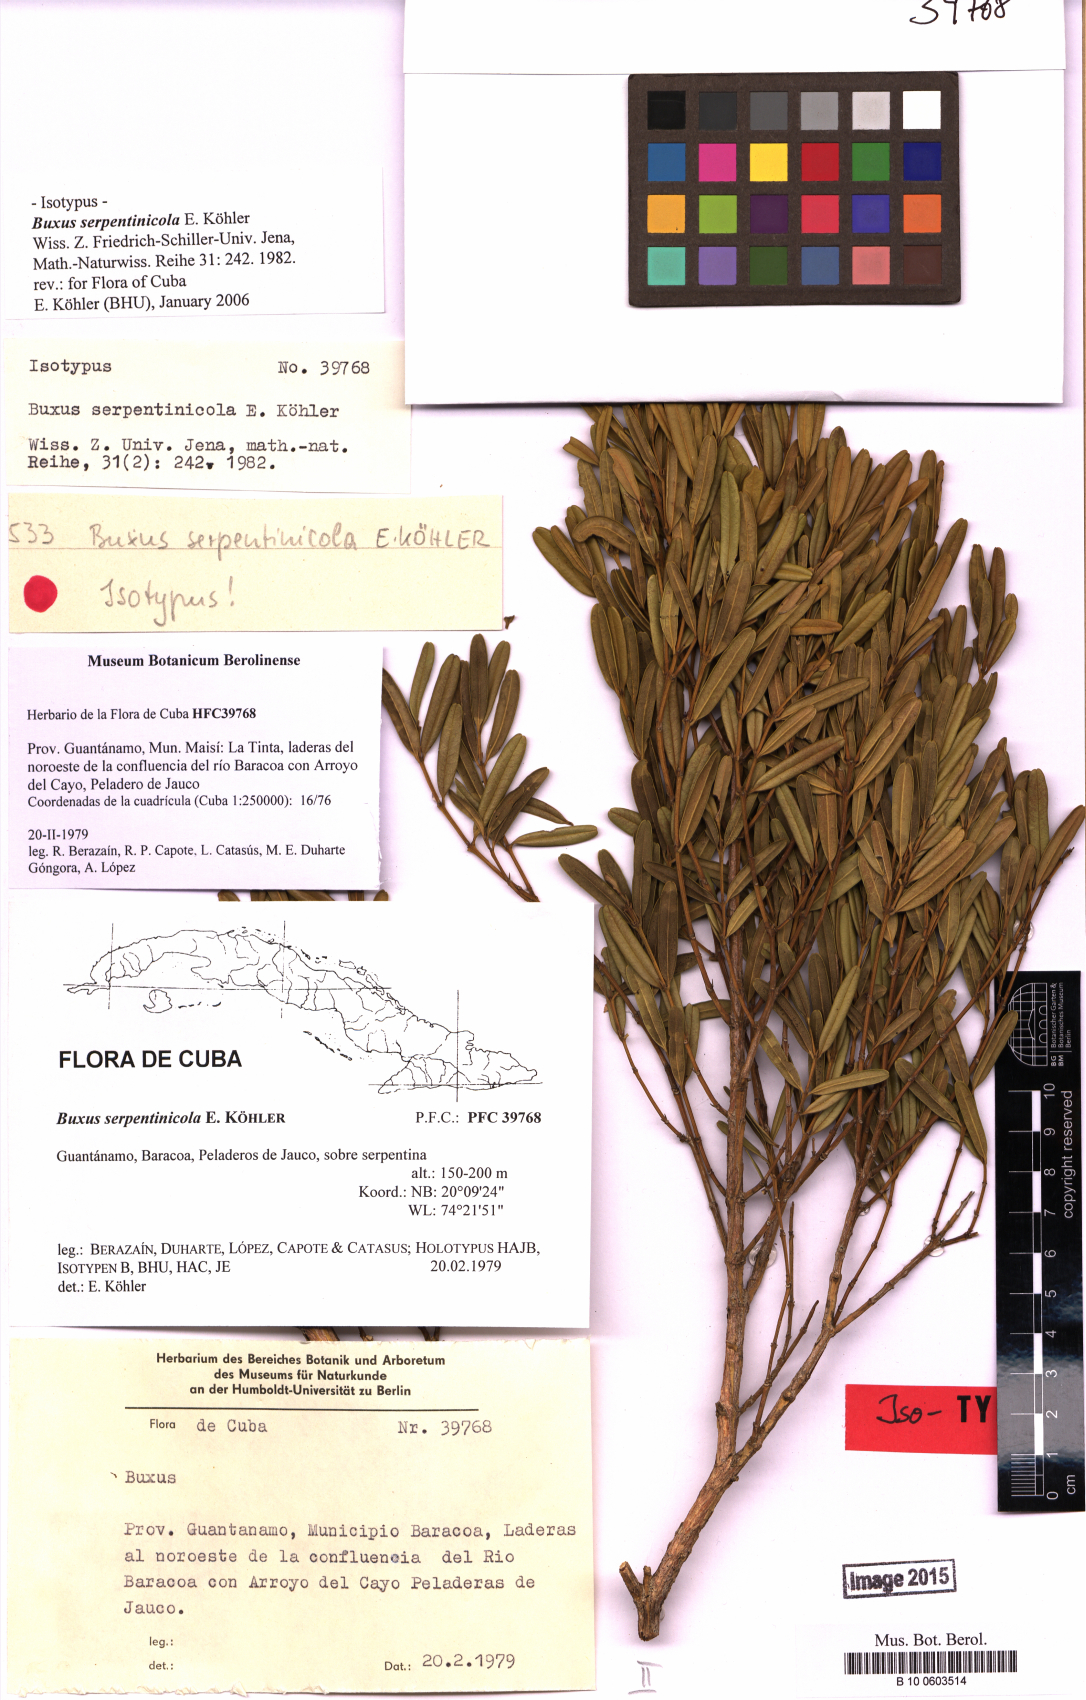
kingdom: Plantae
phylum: Tracheophyta
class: Magnoliopsida
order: Buxales
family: Buxaceae
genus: Buxus
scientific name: Buxus serpentinicola
